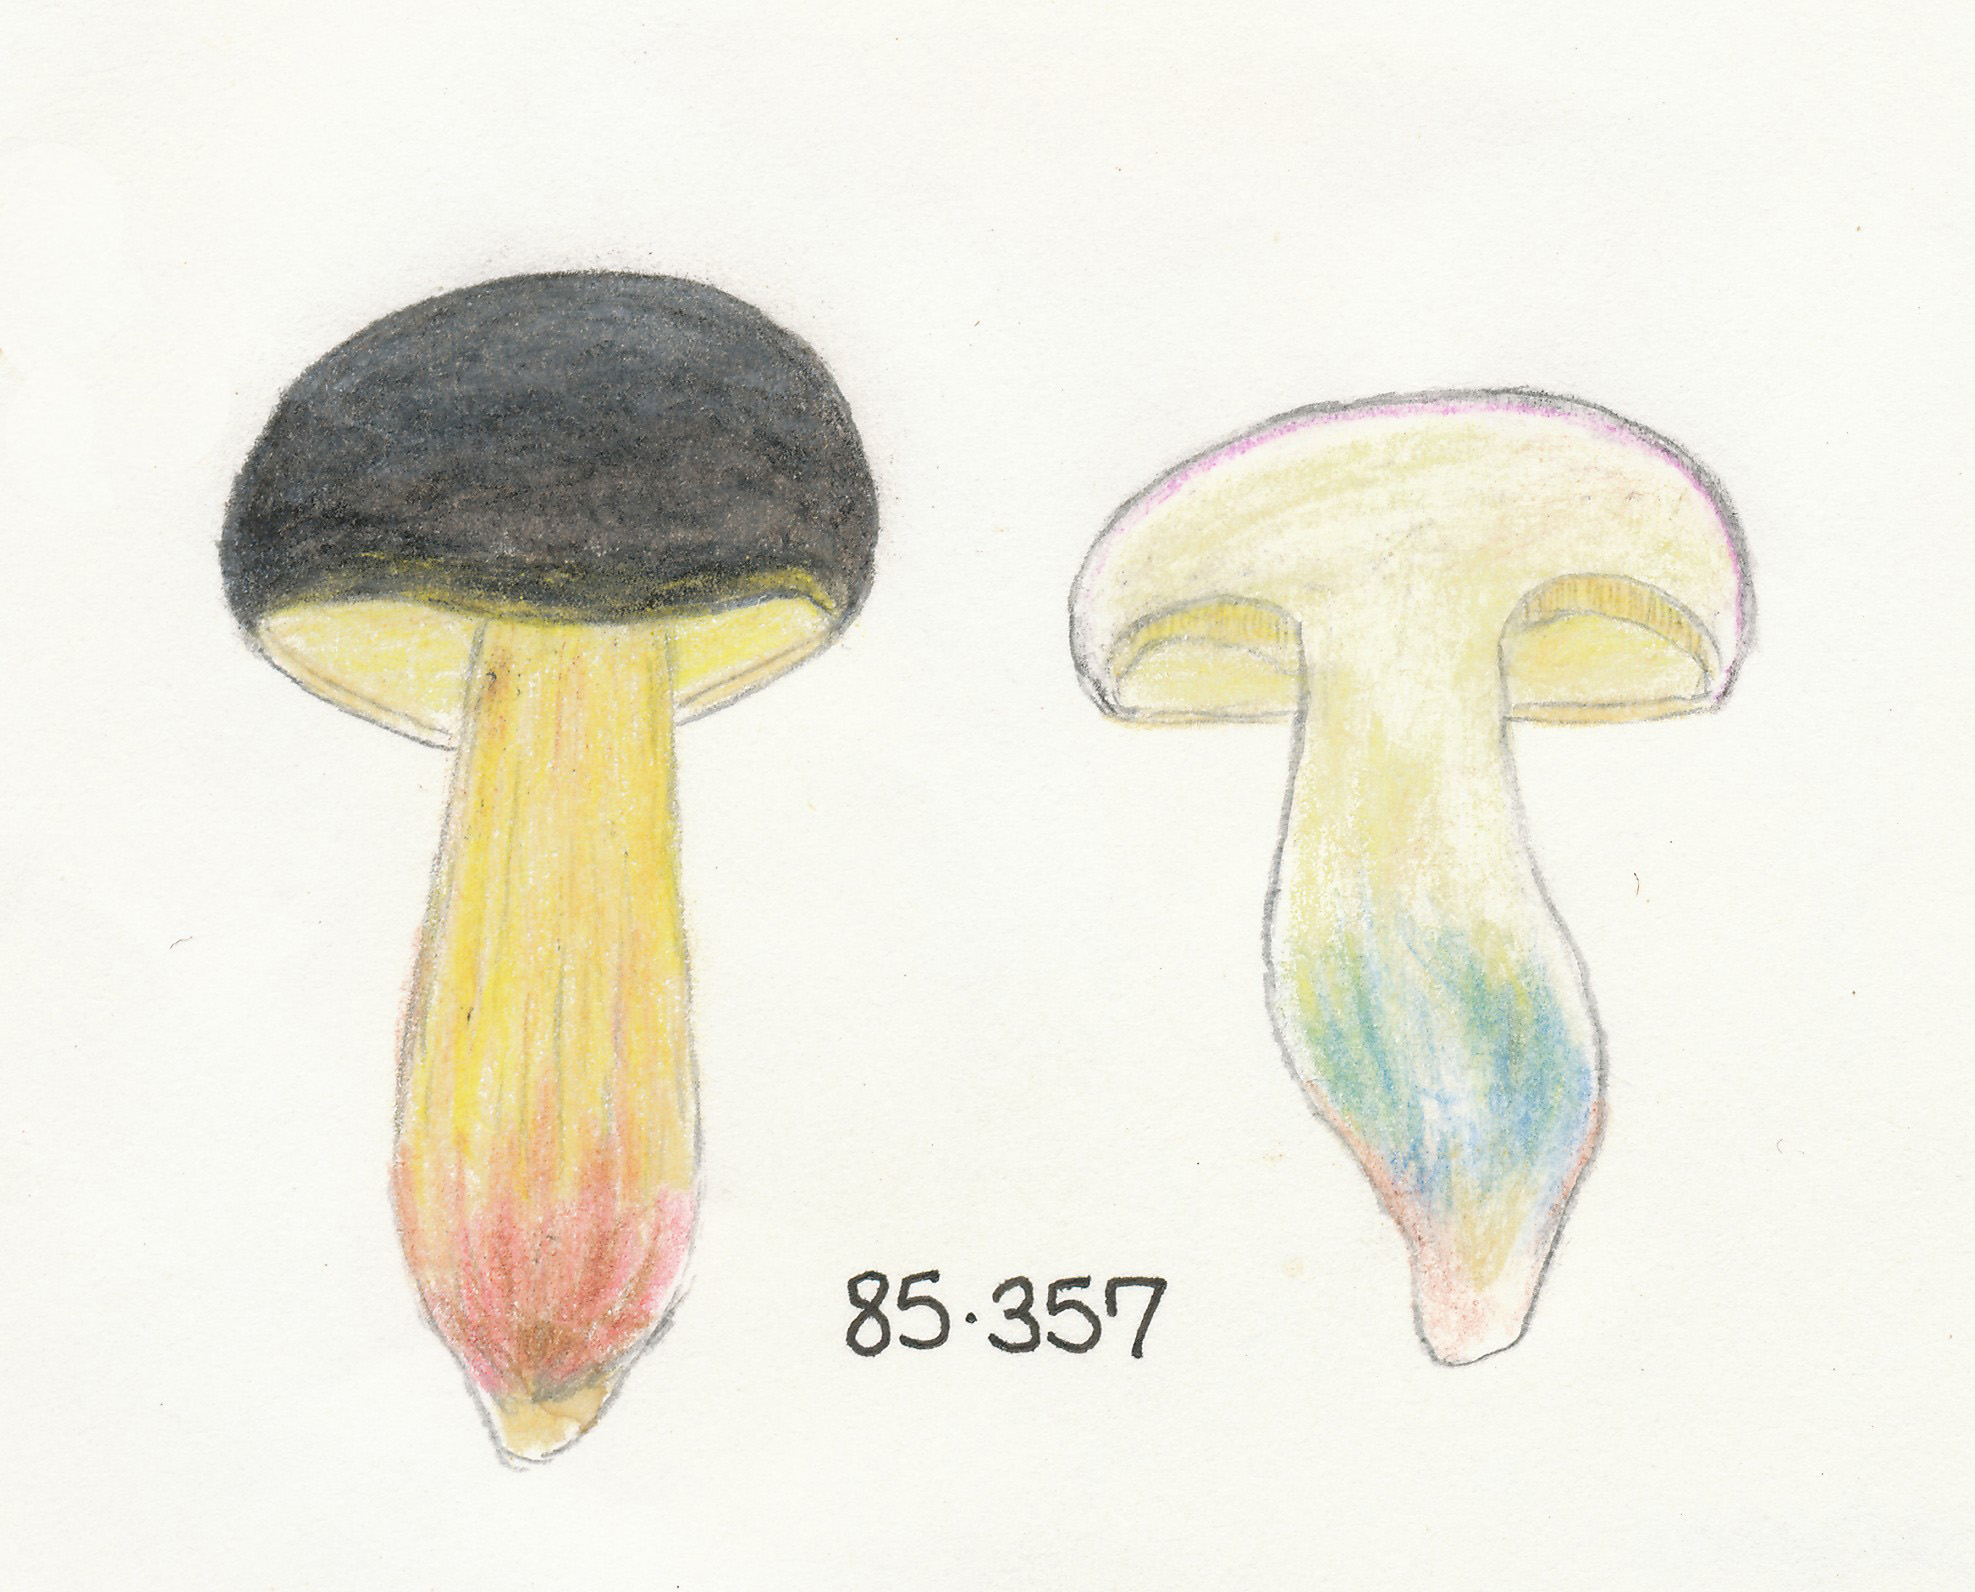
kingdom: Fungi
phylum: Basidiomycota
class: Agaricomycetes
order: Boletales
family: Boletaceae
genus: Xerocomellus
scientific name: Xerocomellus cisalpinus
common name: finsprukken rørhat
